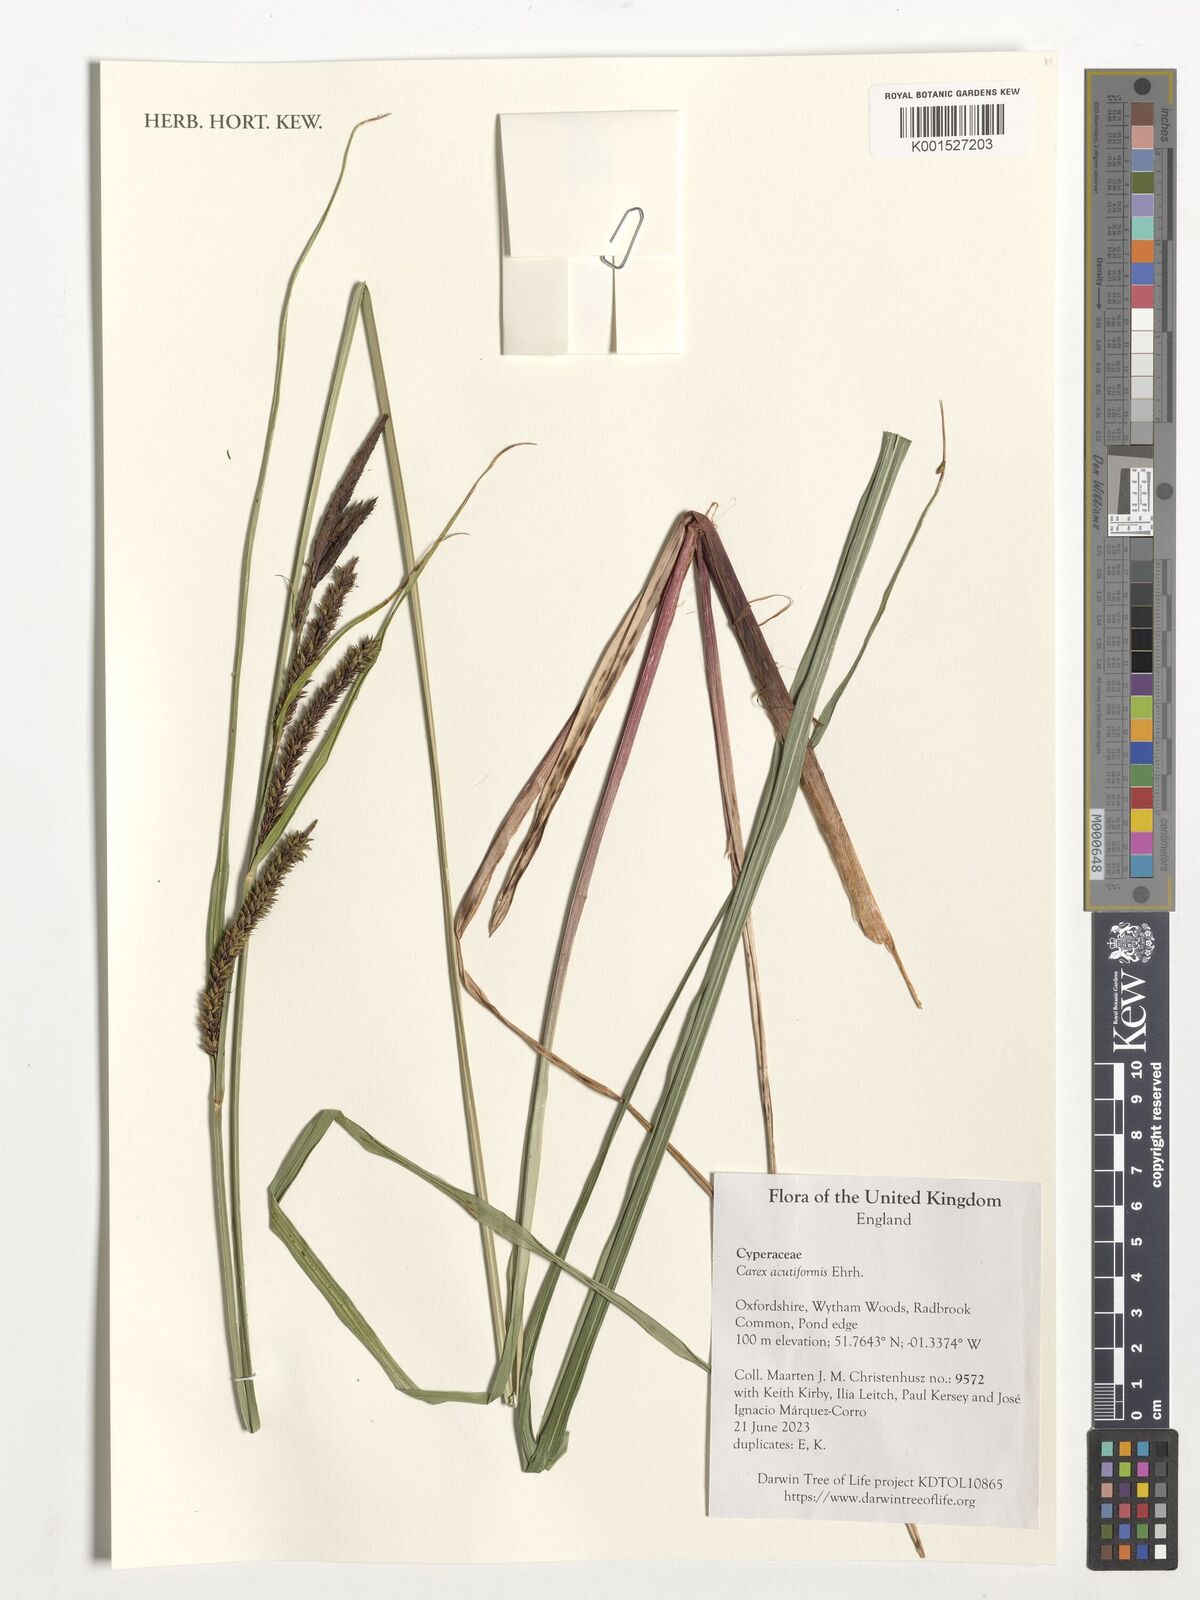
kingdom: Plantae
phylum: Tracheophyta
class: Liliopsida
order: Poales
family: Cyperaceae
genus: Carex
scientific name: Carex acutiformis
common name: Lesser pond-sedge
